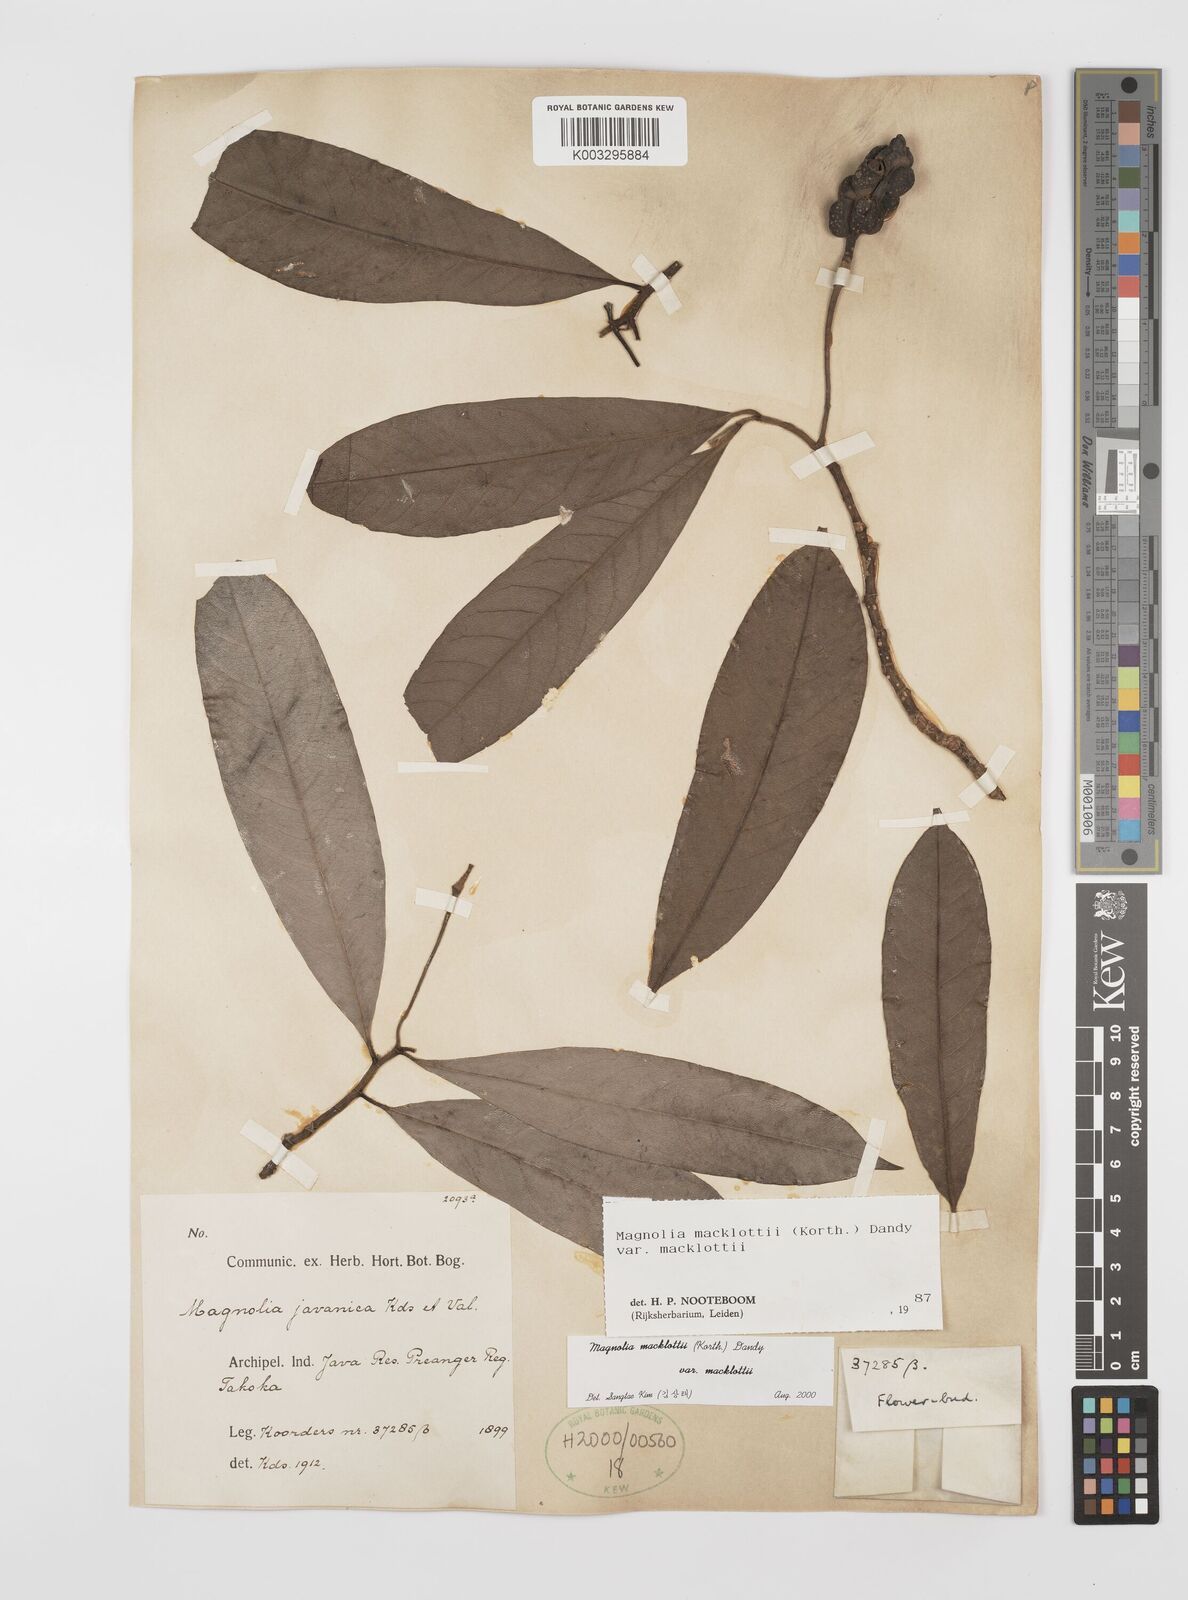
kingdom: Plantae
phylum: Tracheophyta
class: Magnoliopsida
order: Magnoliales
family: Magnoliaceae
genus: Magnolia
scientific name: Magnolia macklottii
